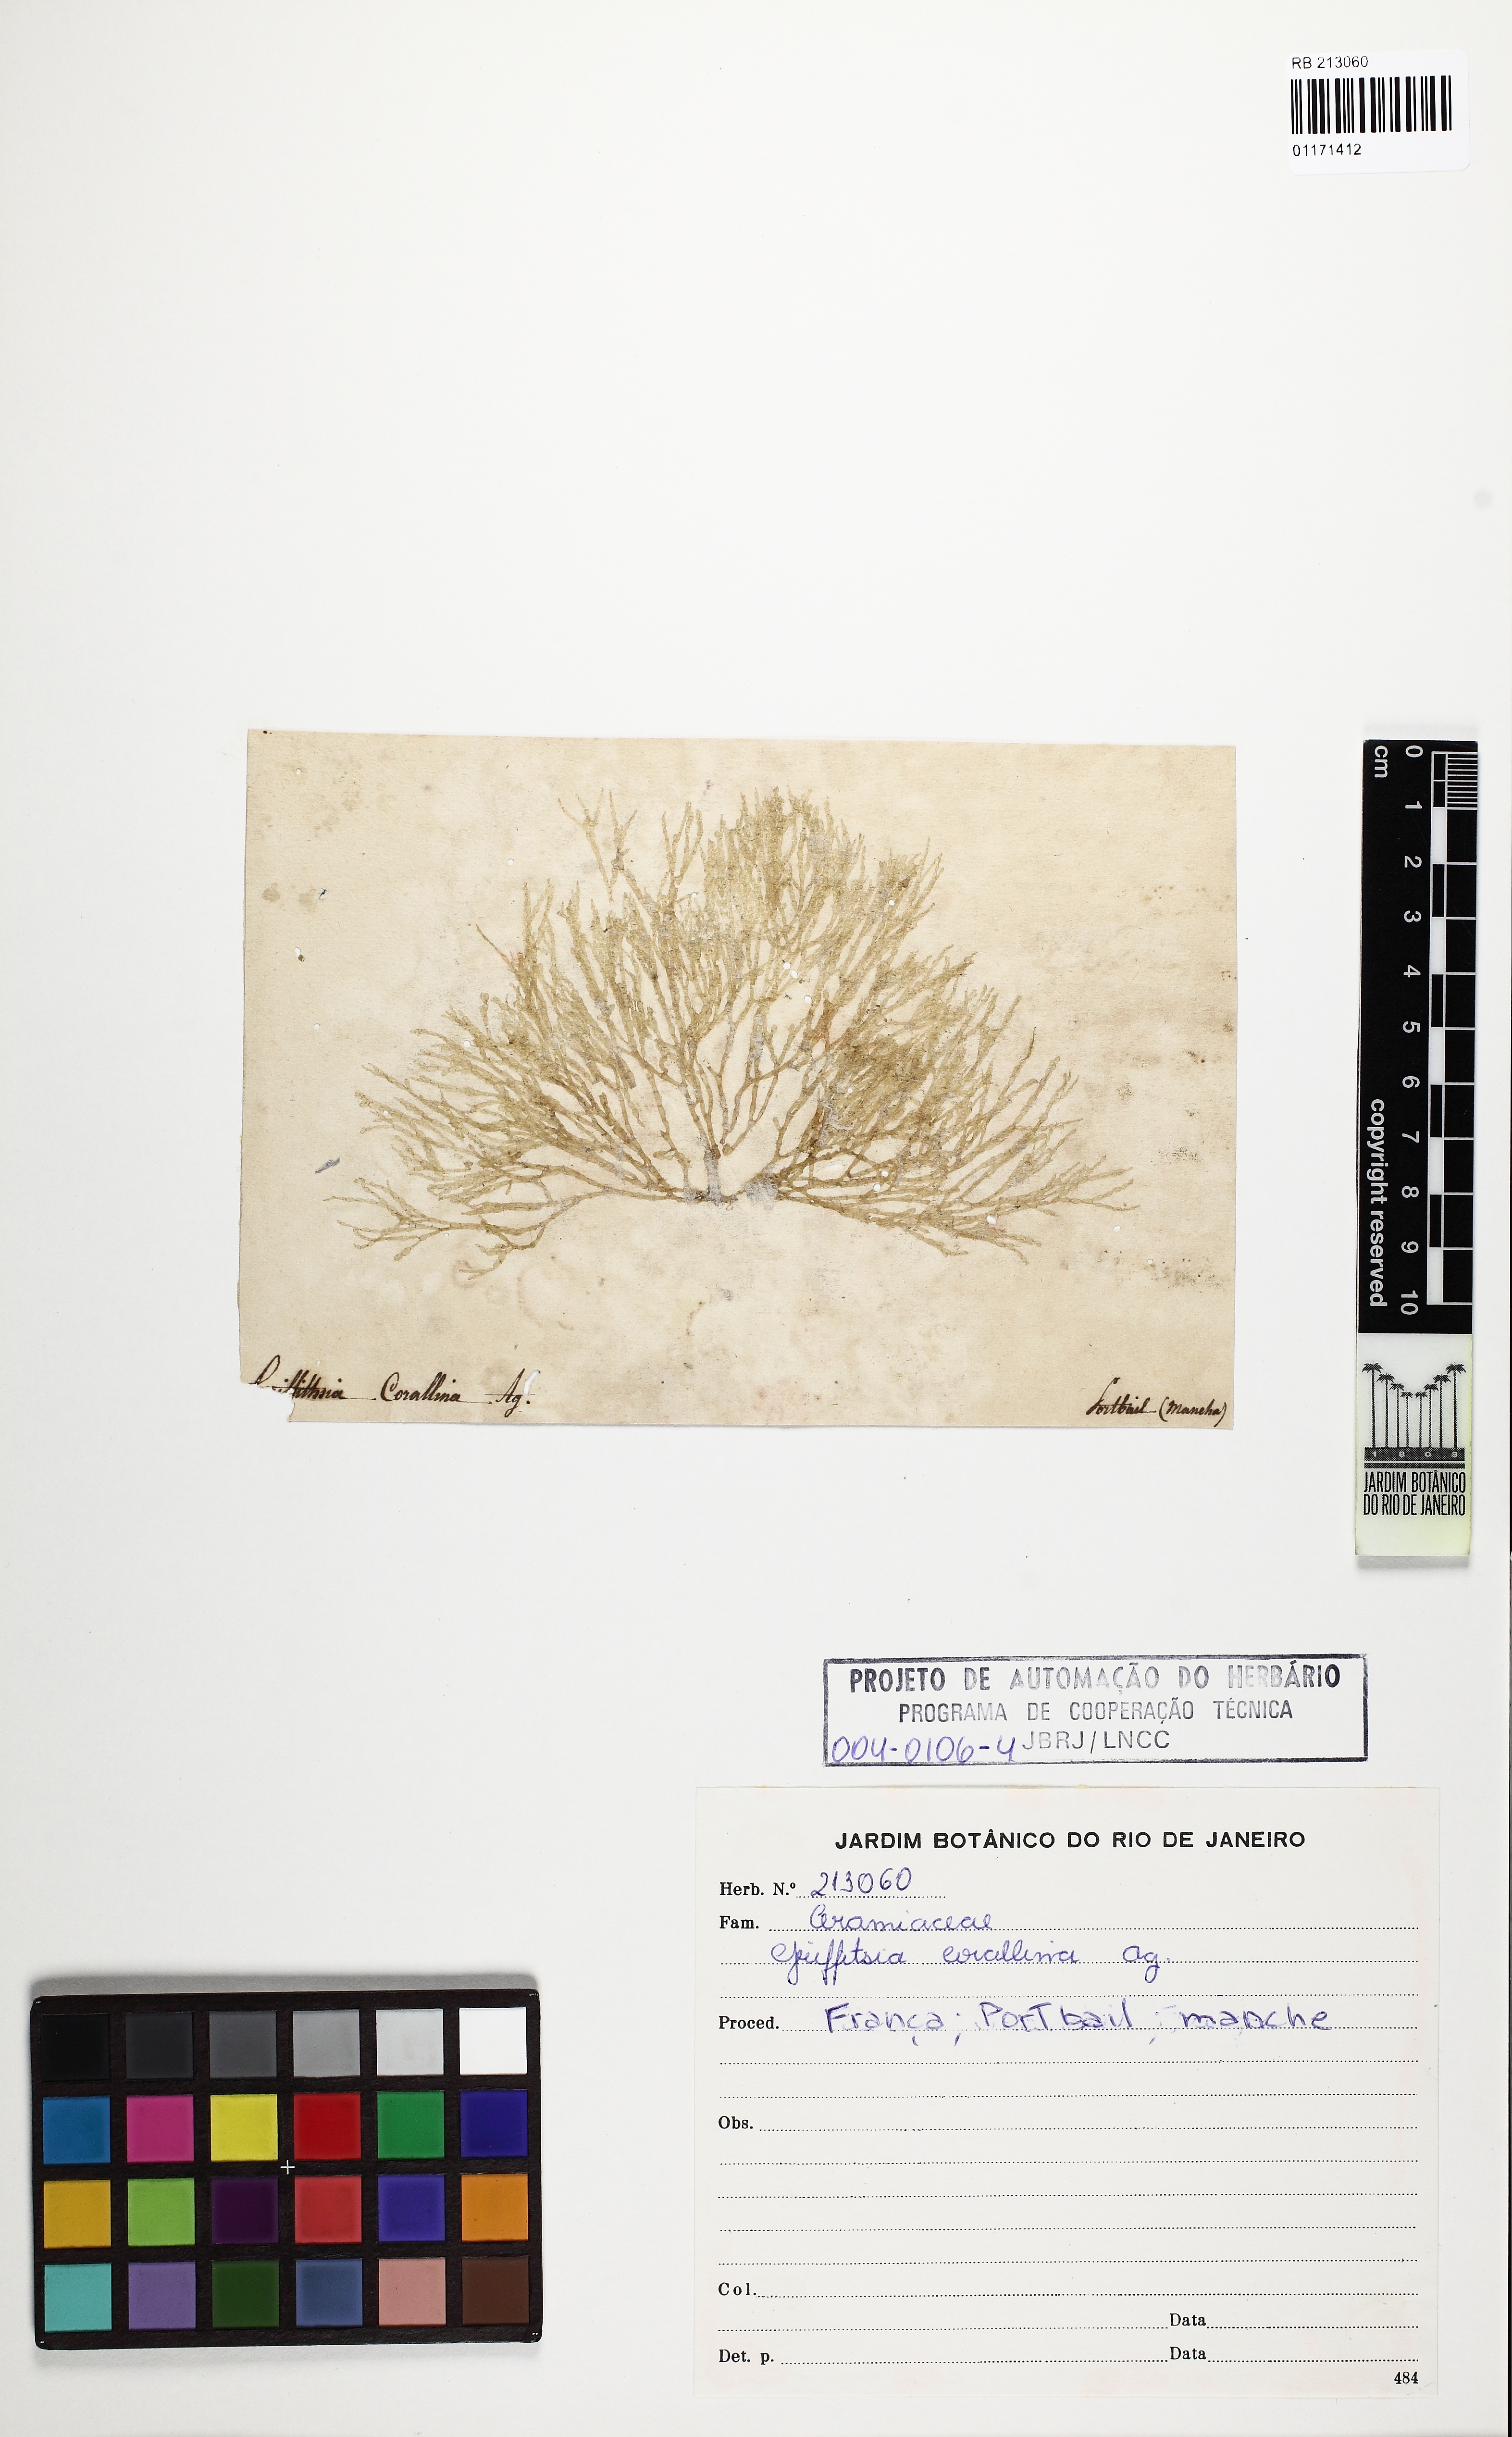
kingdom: Plantae
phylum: Rhodophyta
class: Florideophyceae
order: Ceramiales
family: Wrangeliaceae
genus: Griffithsia
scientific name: Griffithsia corallinoides
